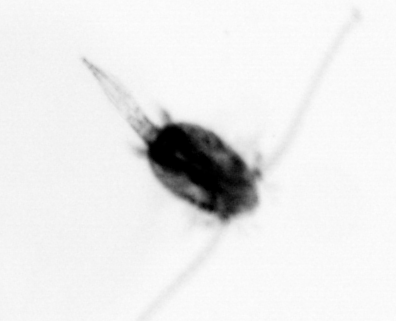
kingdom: Animalia
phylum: Arthropoda
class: Copepoda
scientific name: Copepoda
